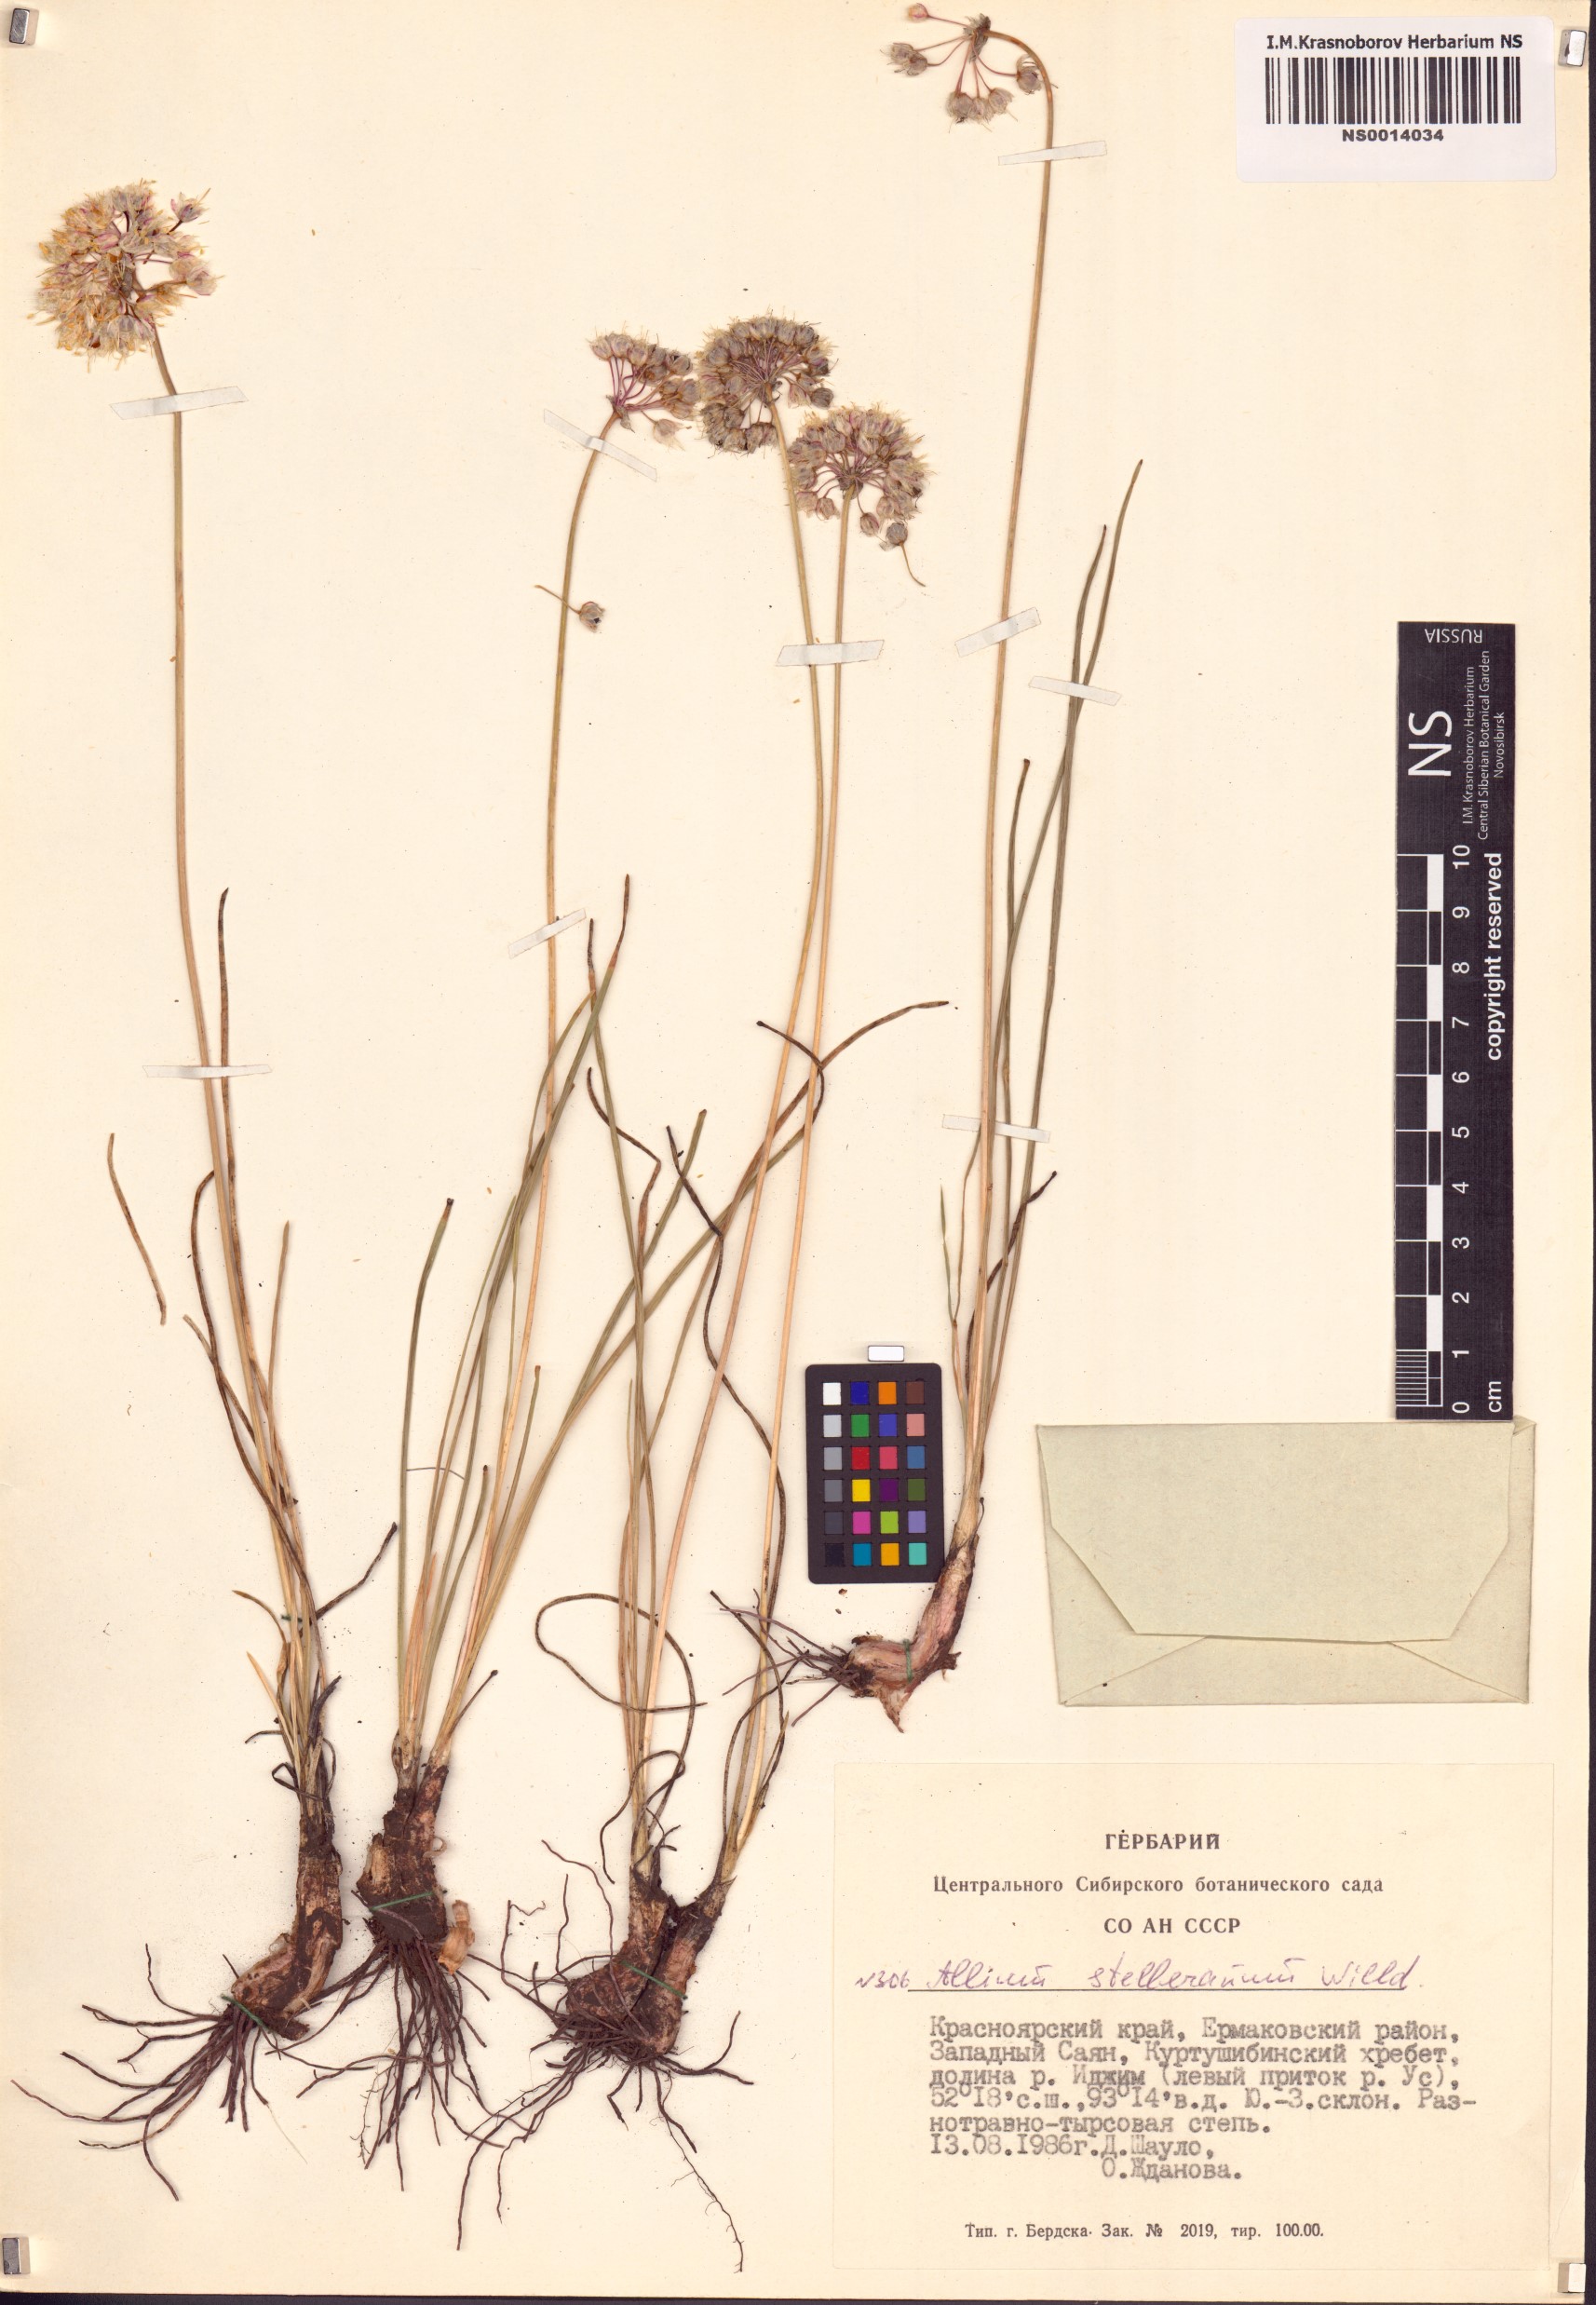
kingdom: Plantae
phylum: Tracheophyta
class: Liliopsida
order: Asparagales
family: Amaryllidaceae
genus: Allium
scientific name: Allium stellerianum
